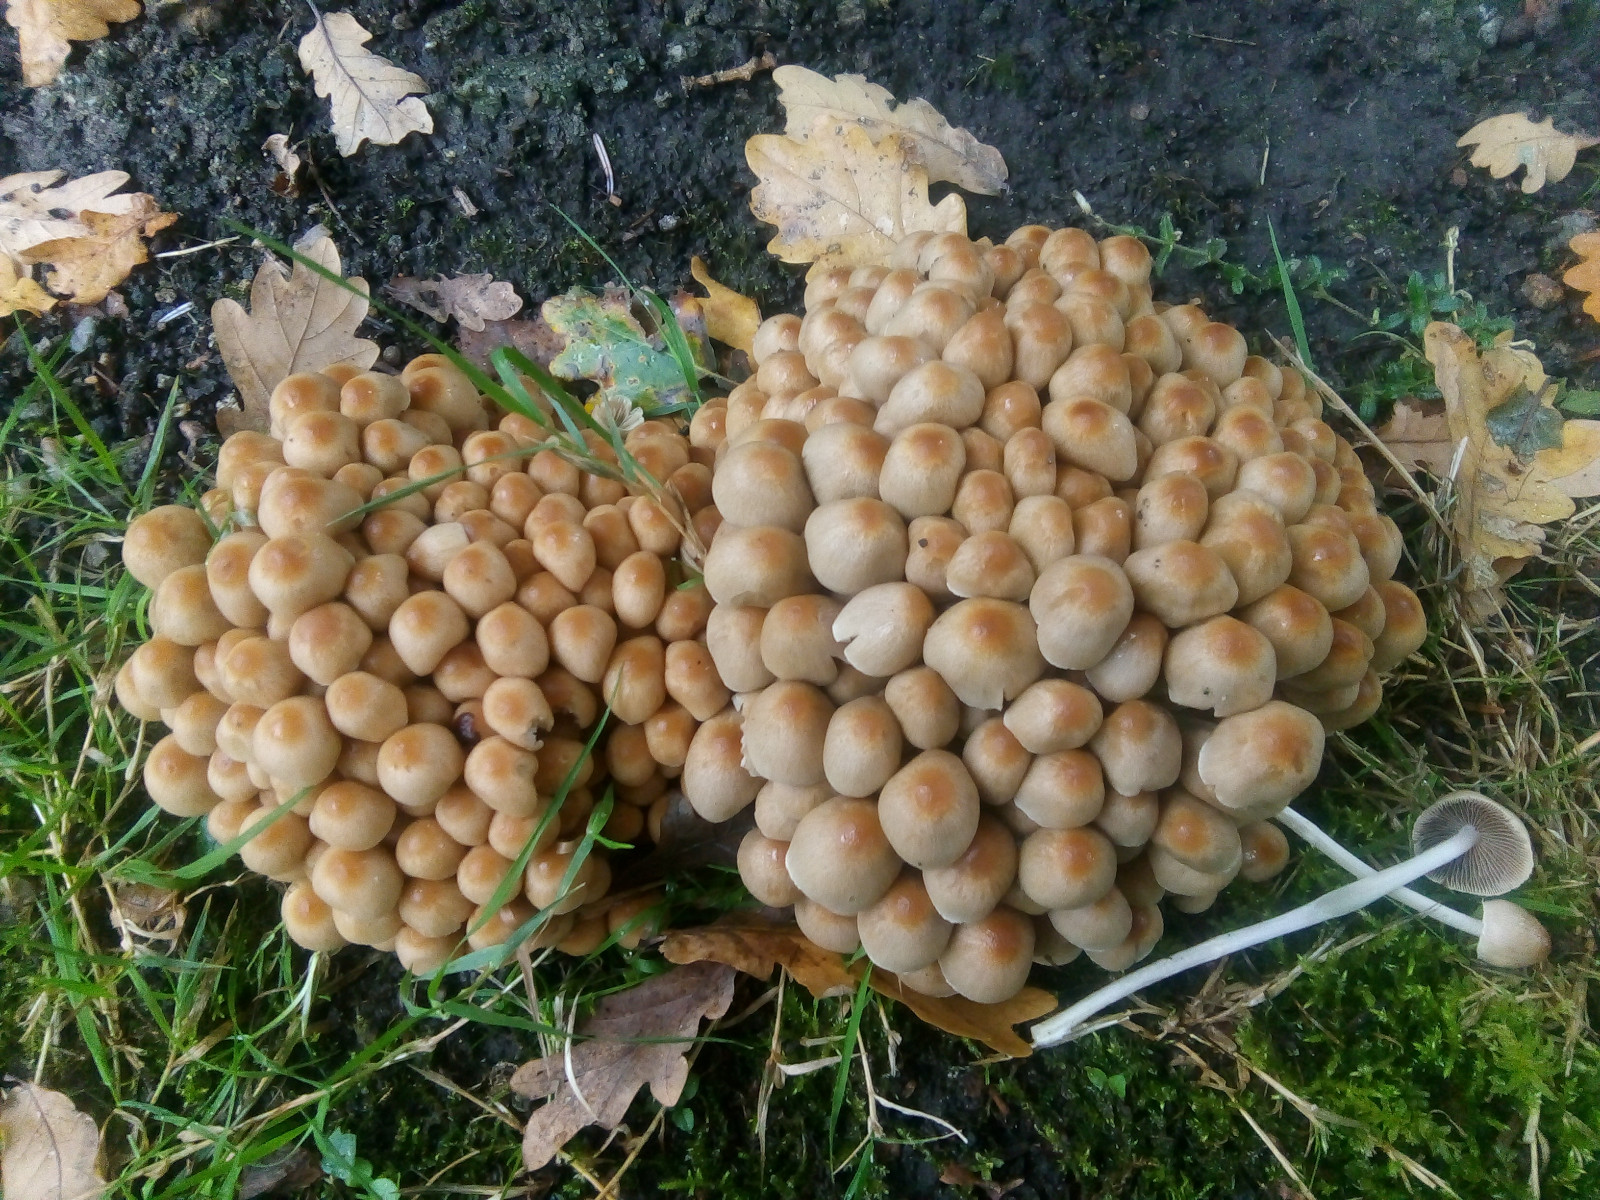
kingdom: Fungi
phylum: Basidiomycota
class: Agaricomycetes
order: Agaricales
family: Psathyrellaceae
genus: Britzelmayria
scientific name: Britzelmayria multipedata
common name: knippe-mørkhat
